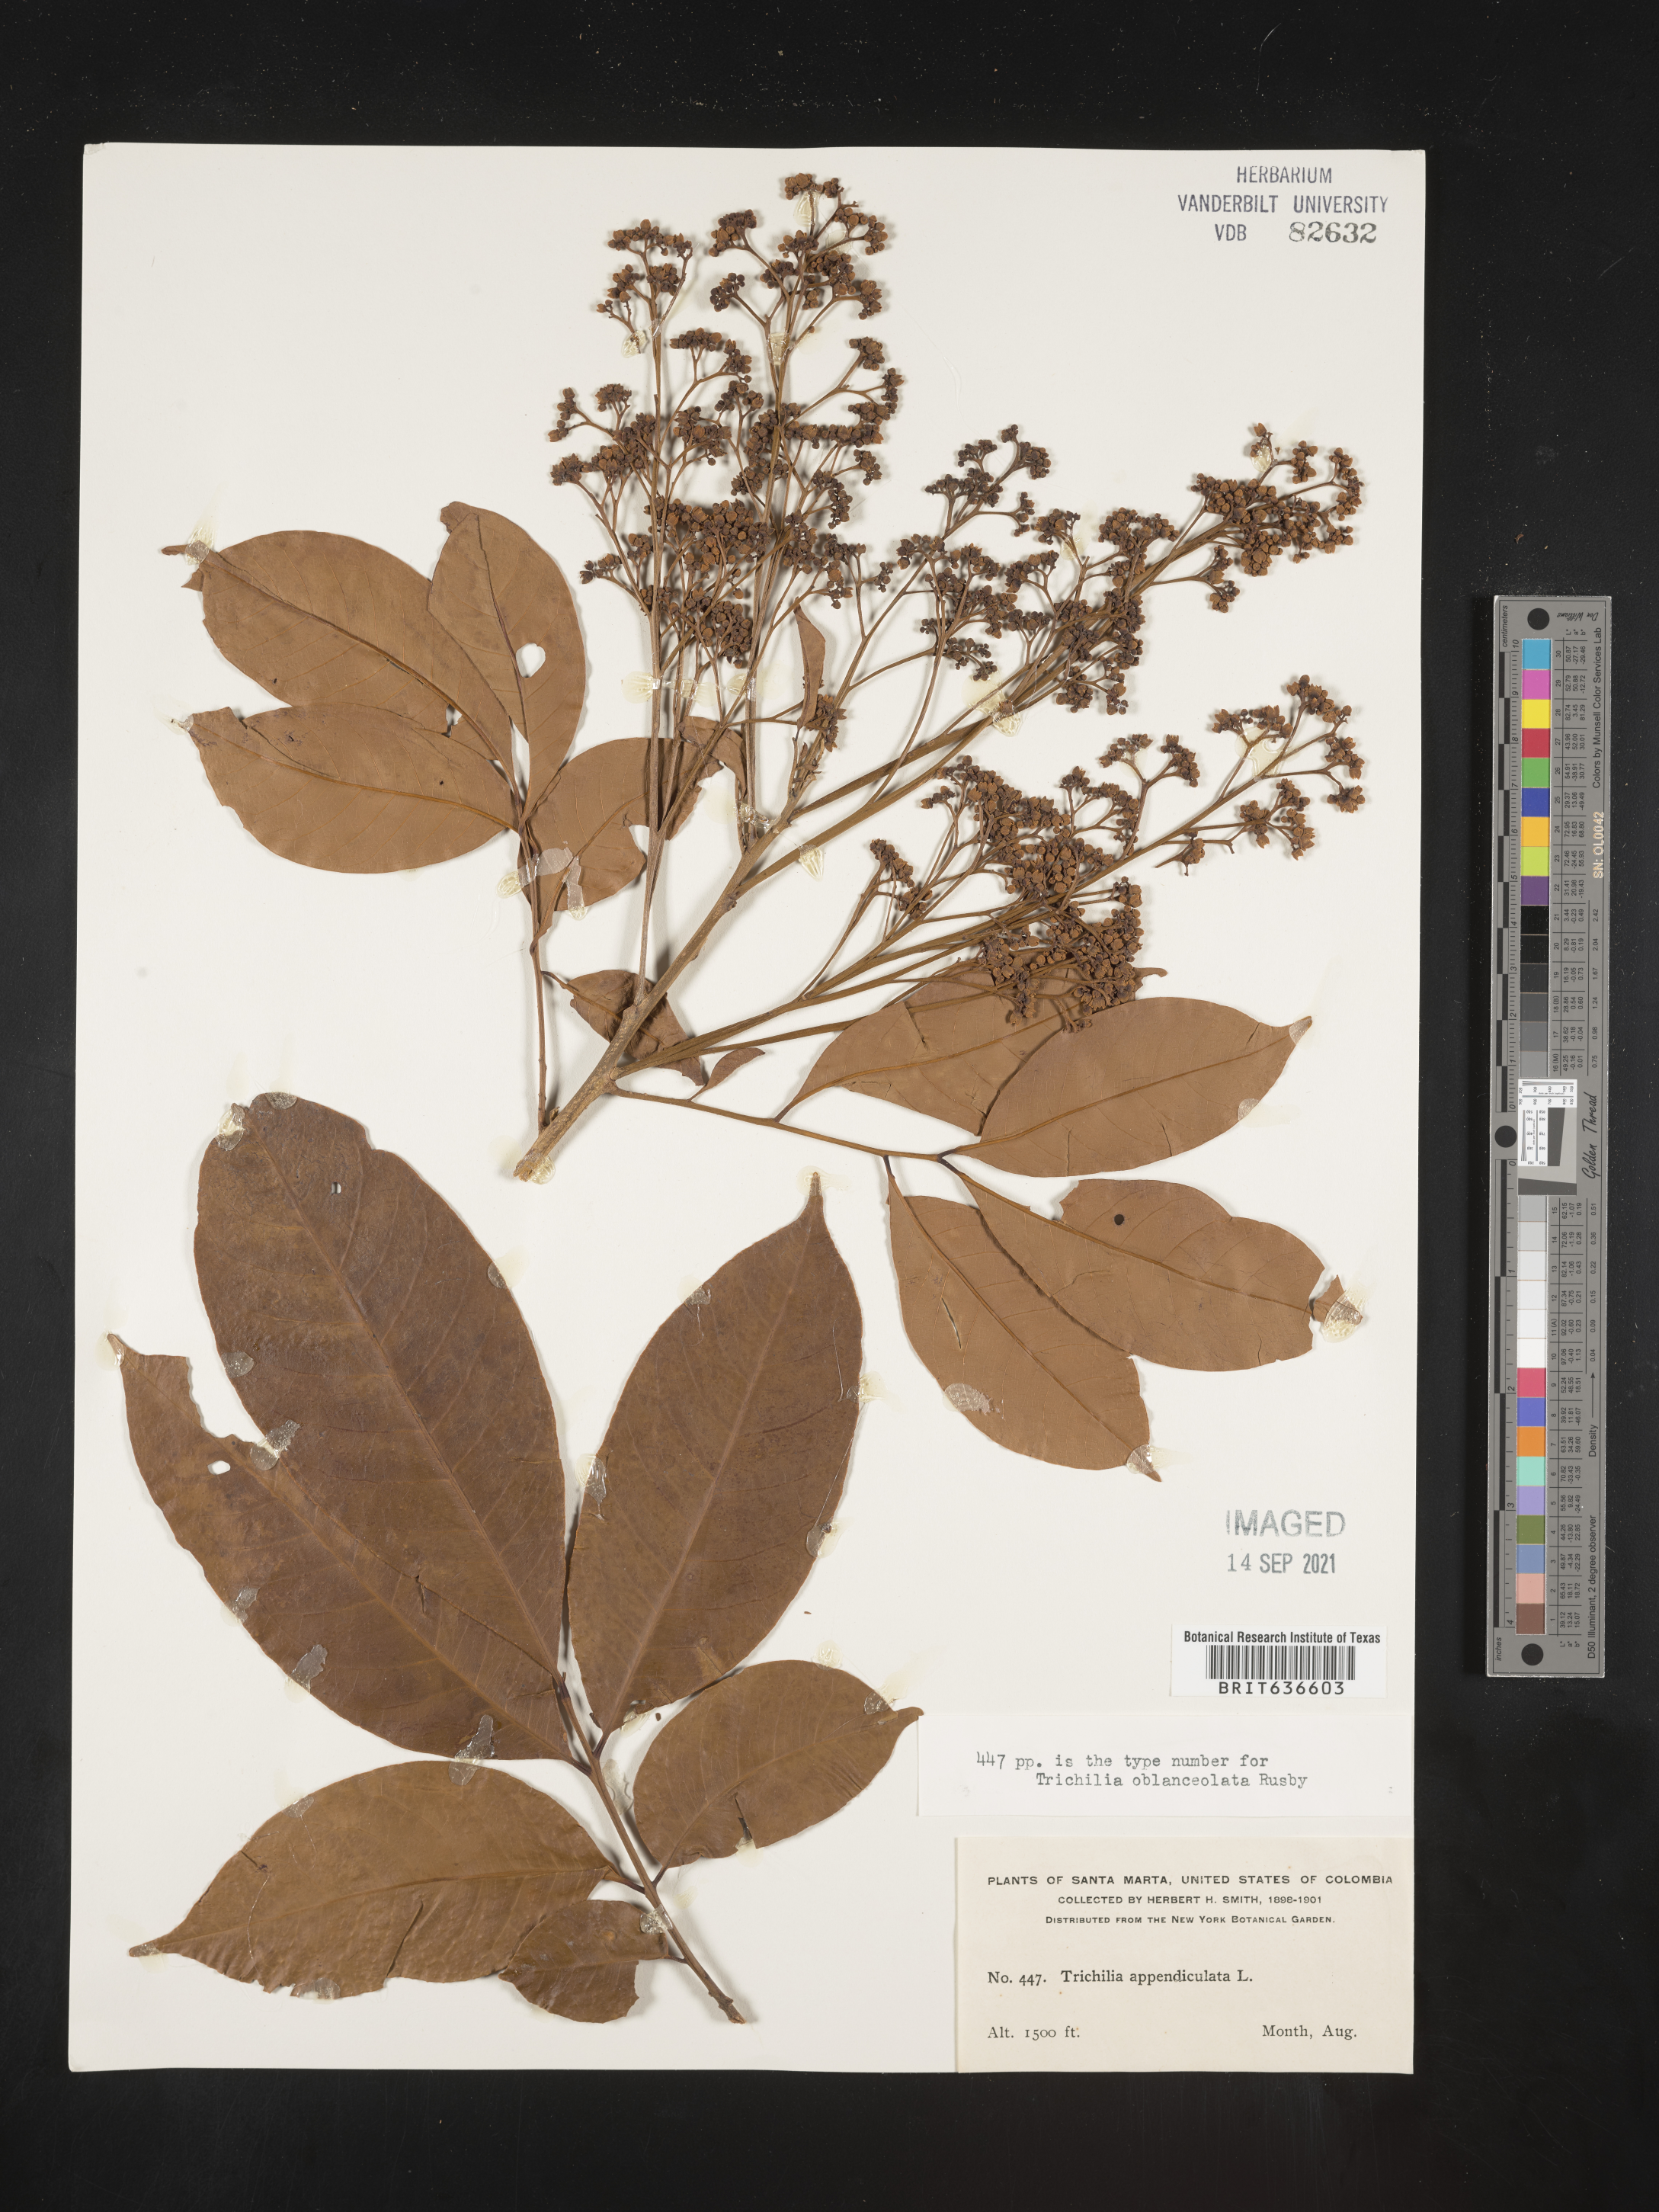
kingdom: Plantae
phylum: Tracheophyta
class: Magnoliopsida
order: Sapindales
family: Meliaceae
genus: Trichilia
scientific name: Trichilia
